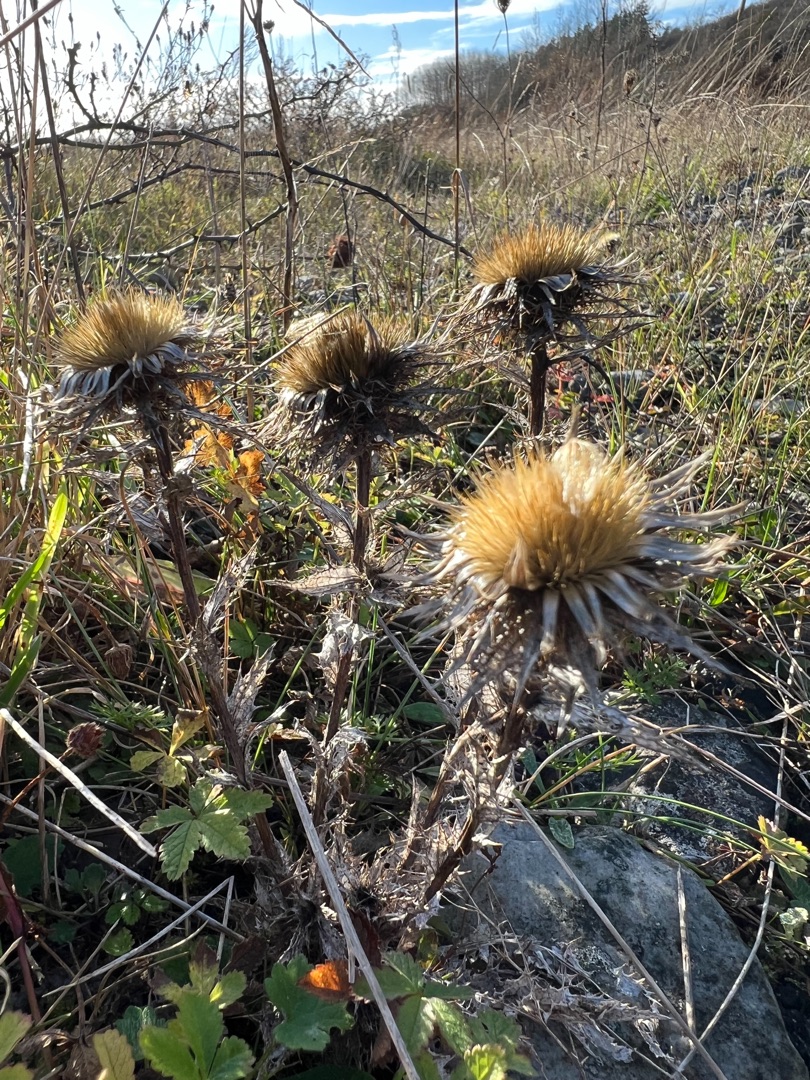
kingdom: Plantae
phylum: Tracheophyta
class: Magnoliopsida
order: Asterales
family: Asteraceae
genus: Carlina
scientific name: Carlina vulgaris
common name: Bakketidsel
